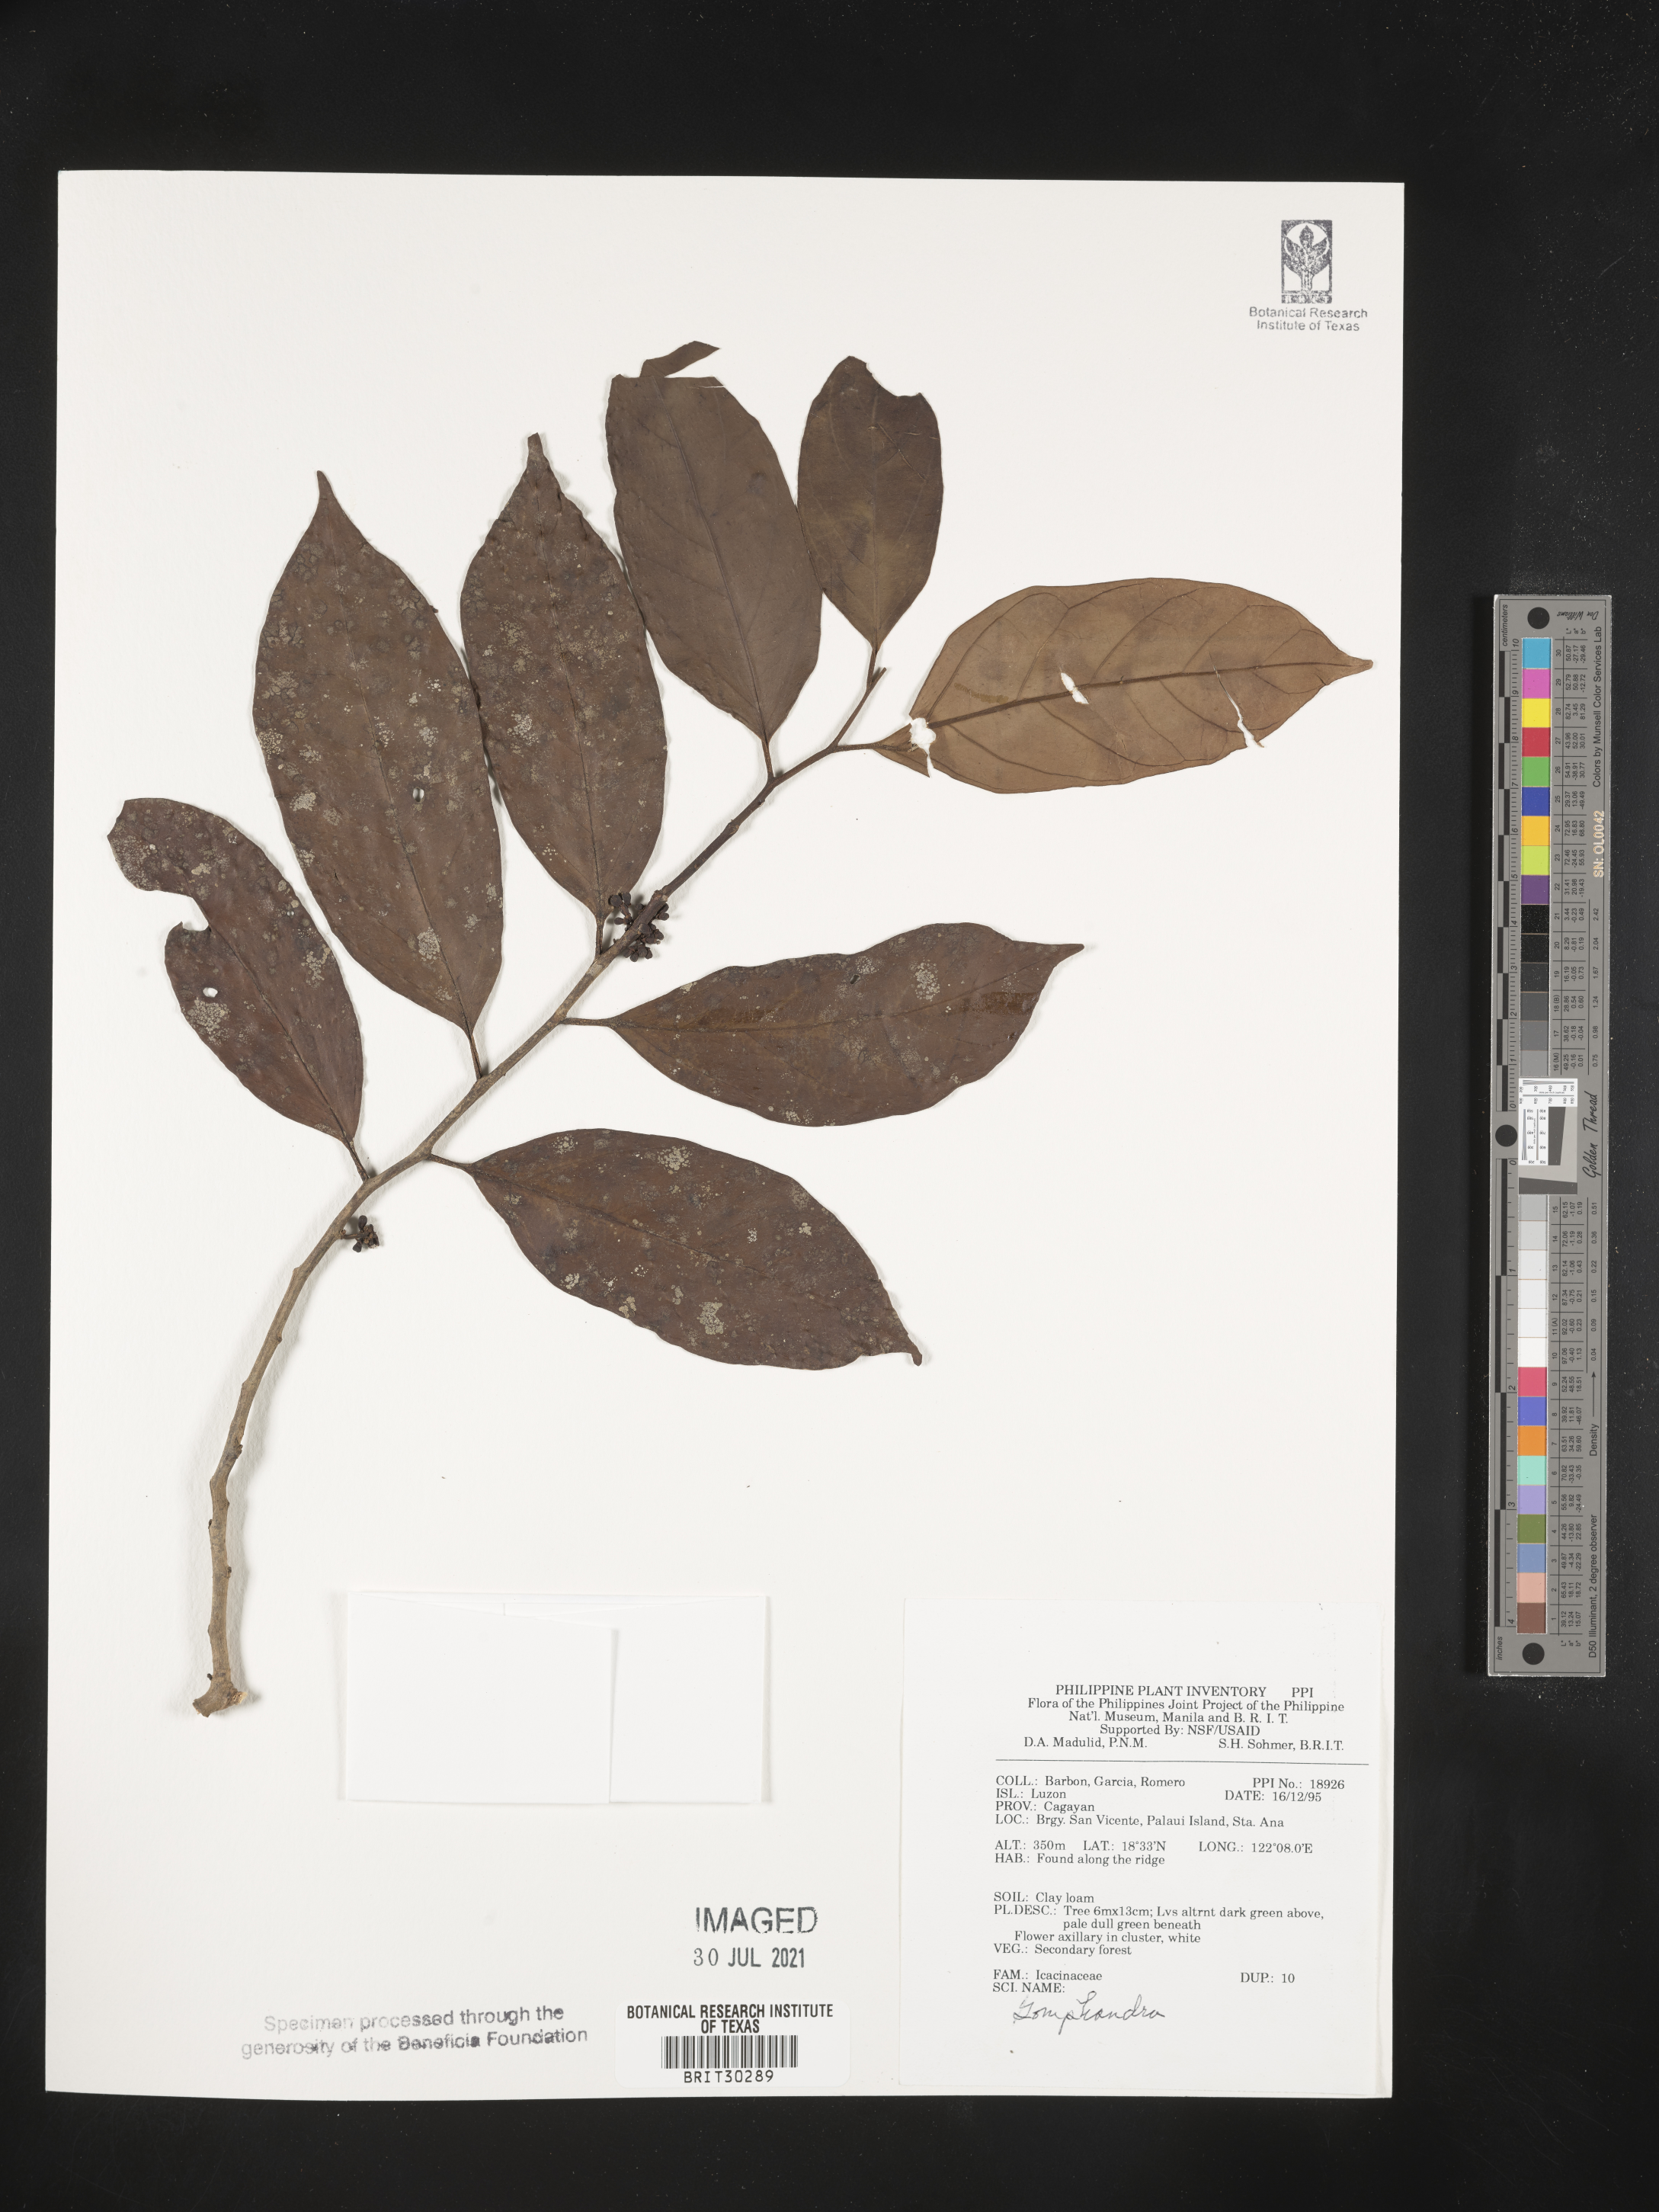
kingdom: Plantae
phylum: Tracheophyta
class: Magnoliopsida
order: Cardiopteridales
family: Stemonuraceae
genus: Gomphandra
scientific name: Gomphandra
